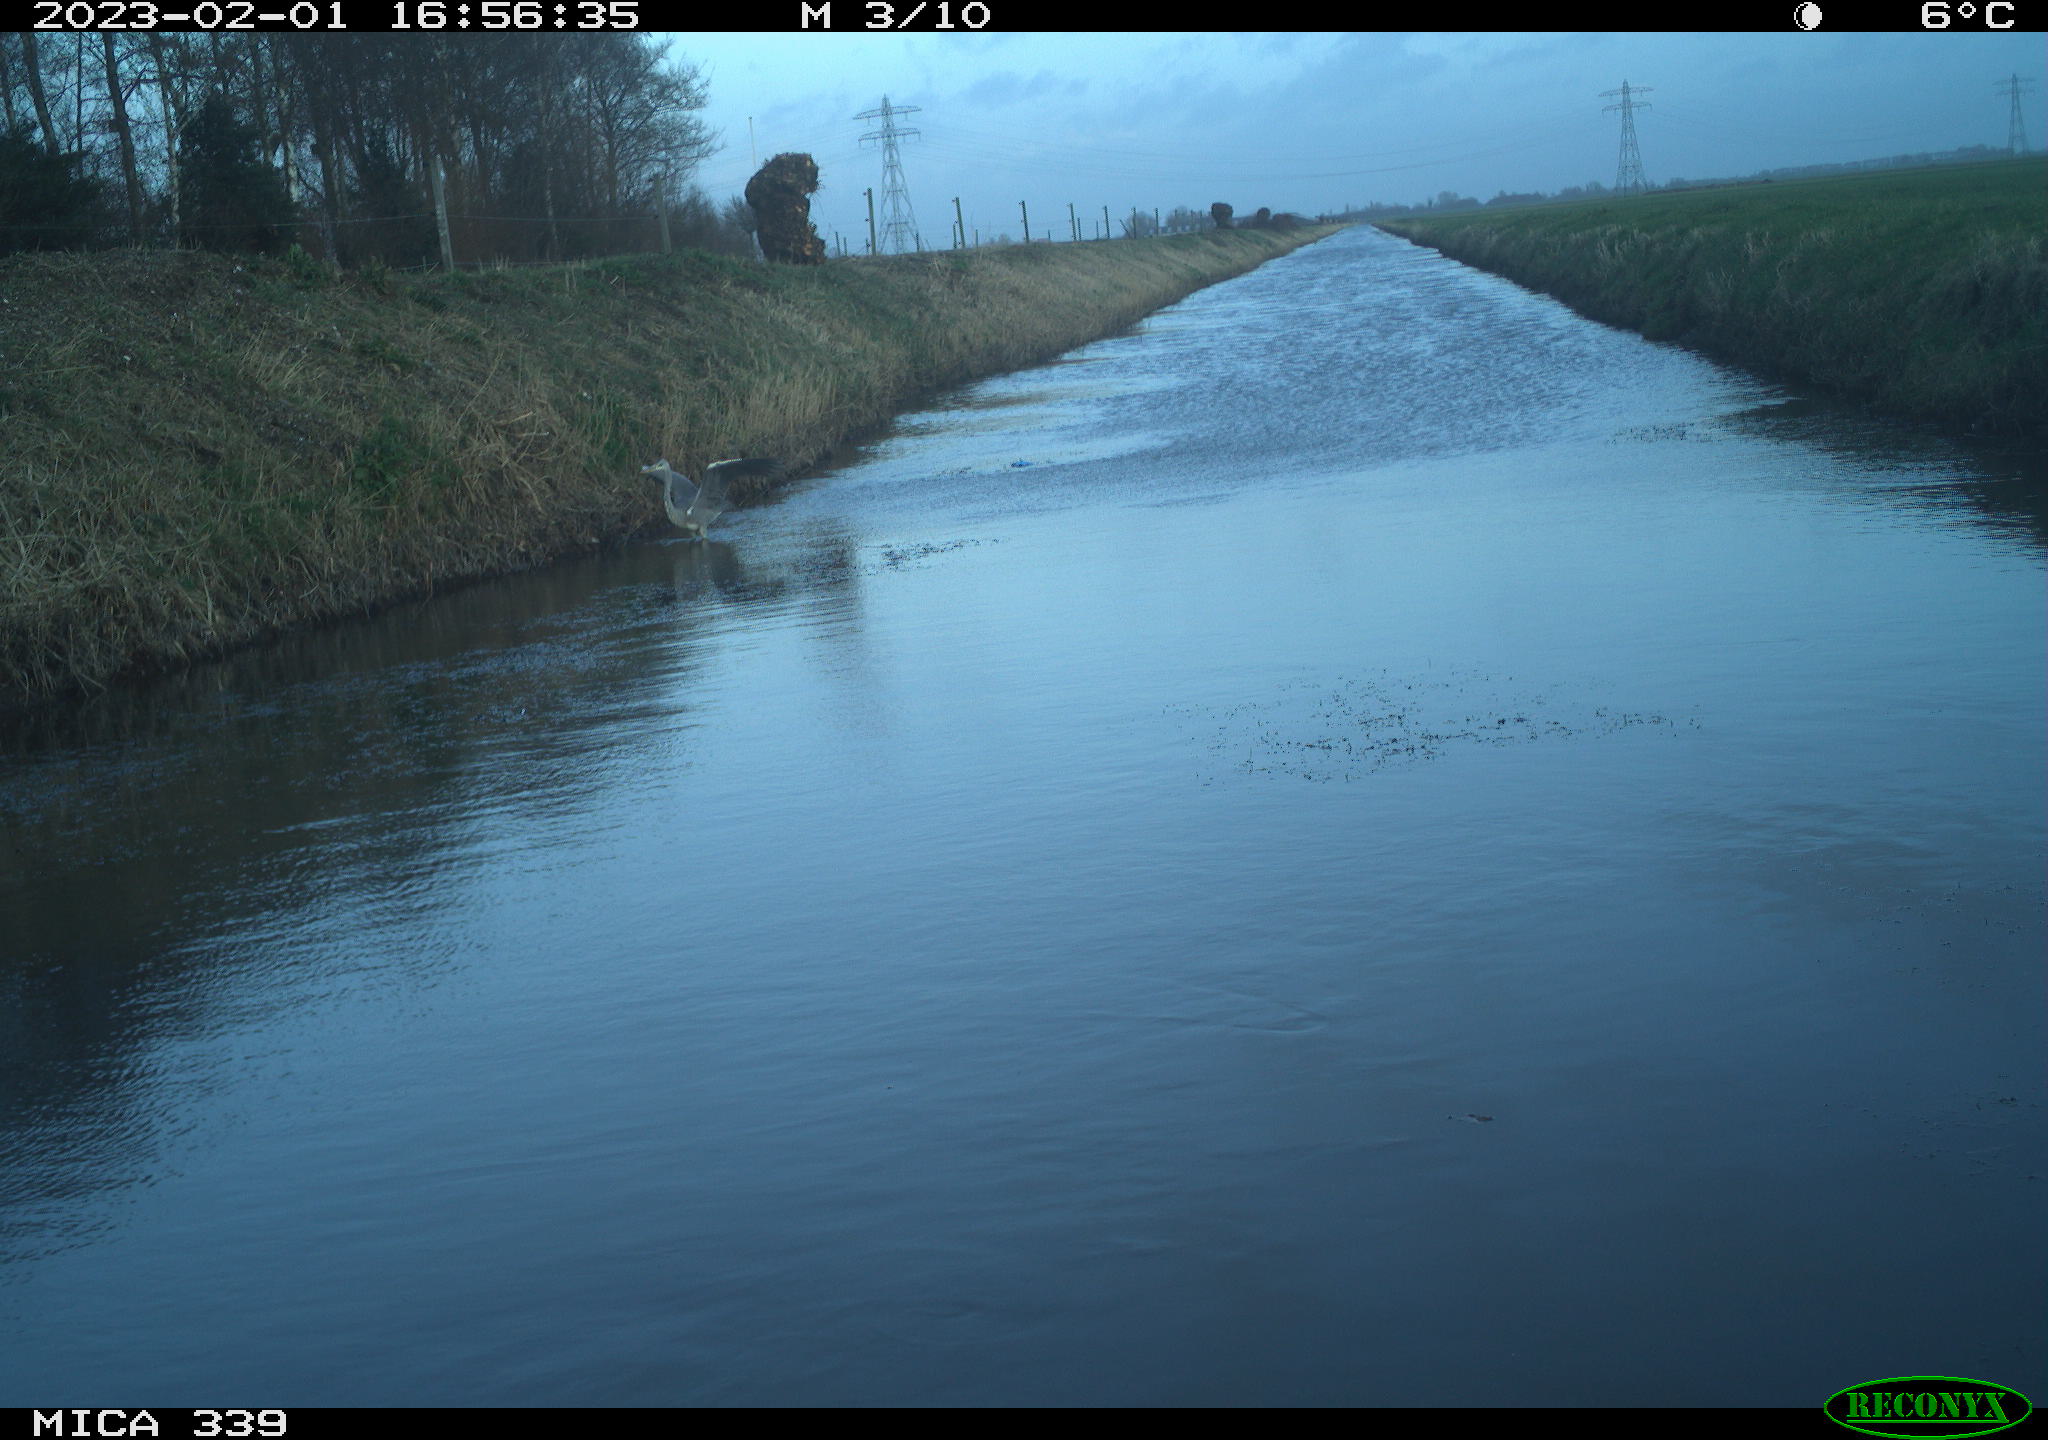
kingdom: Animalia
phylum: Chordata
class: Aves
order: Pelecaniformes
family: Ardeidae
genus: Ardea
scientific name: Ardea cinerea
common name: Grey heron
